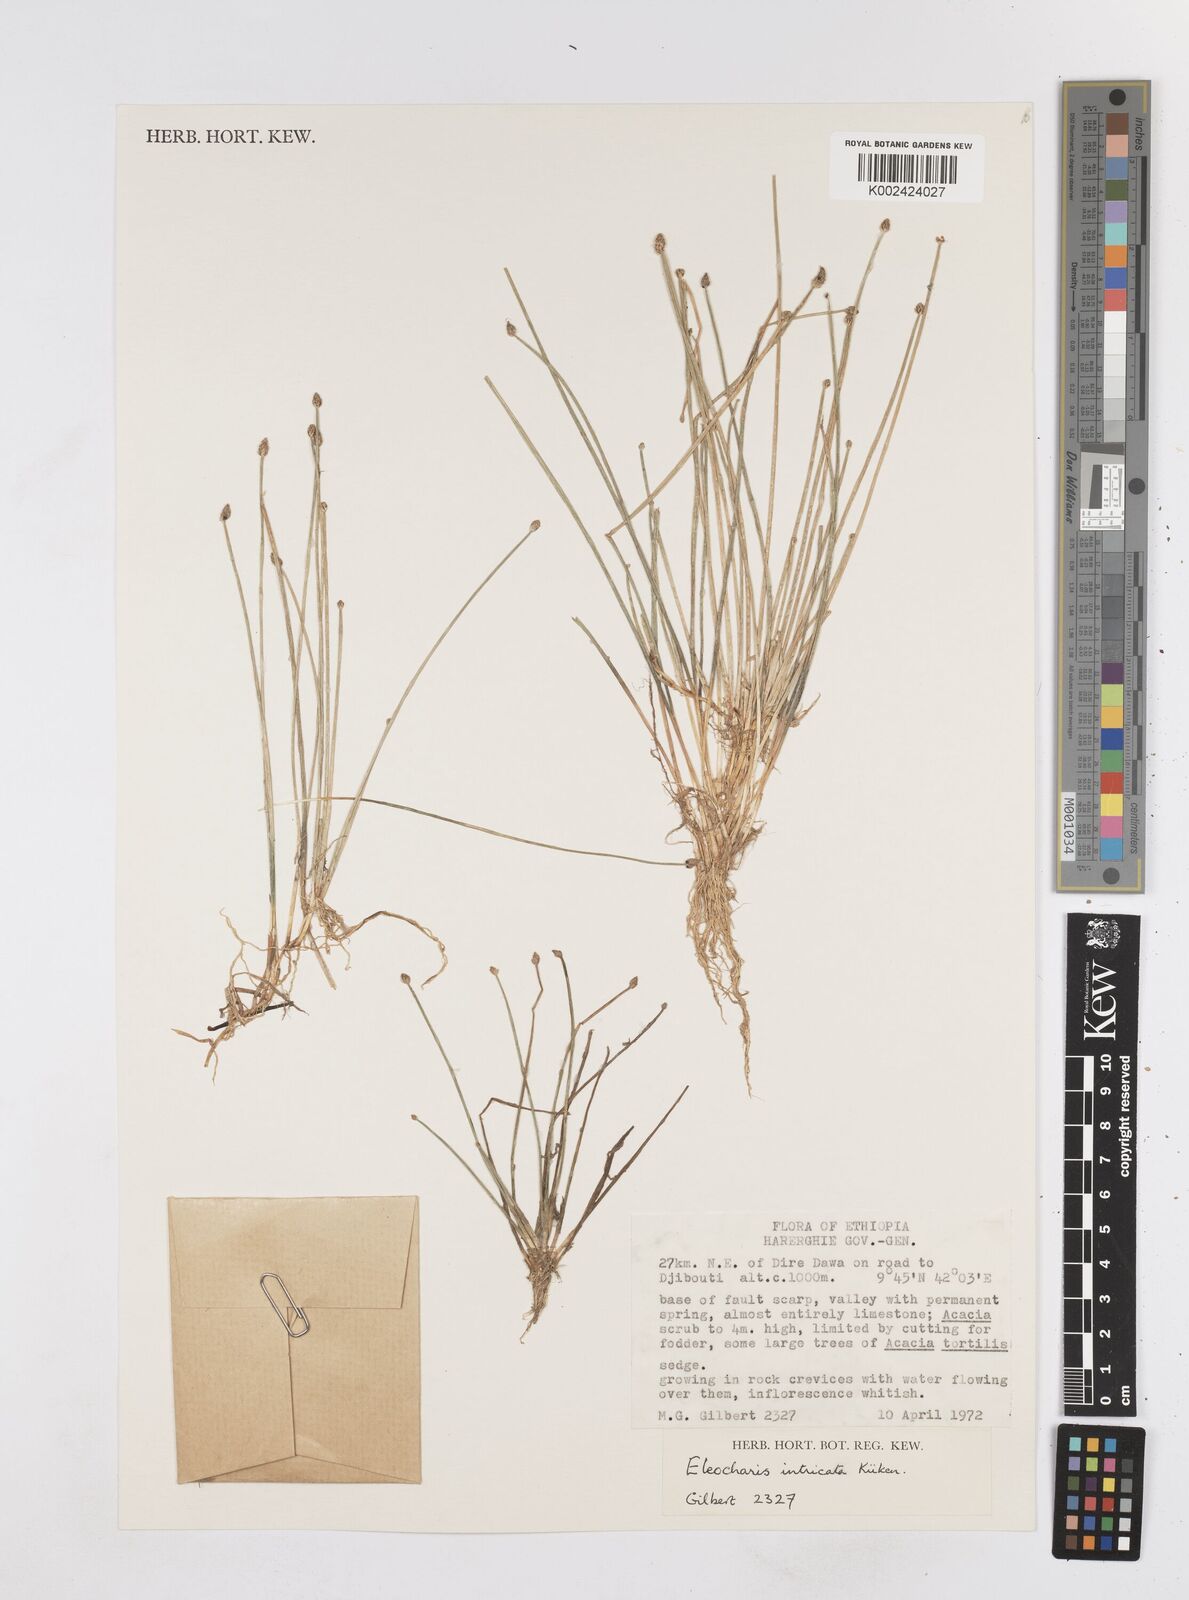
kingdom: Plantae
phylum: Tracheophyta
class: Liliopsida
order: Poales
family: Cyperaceae
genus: Eleocharis
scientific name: Eleocharis caduca
